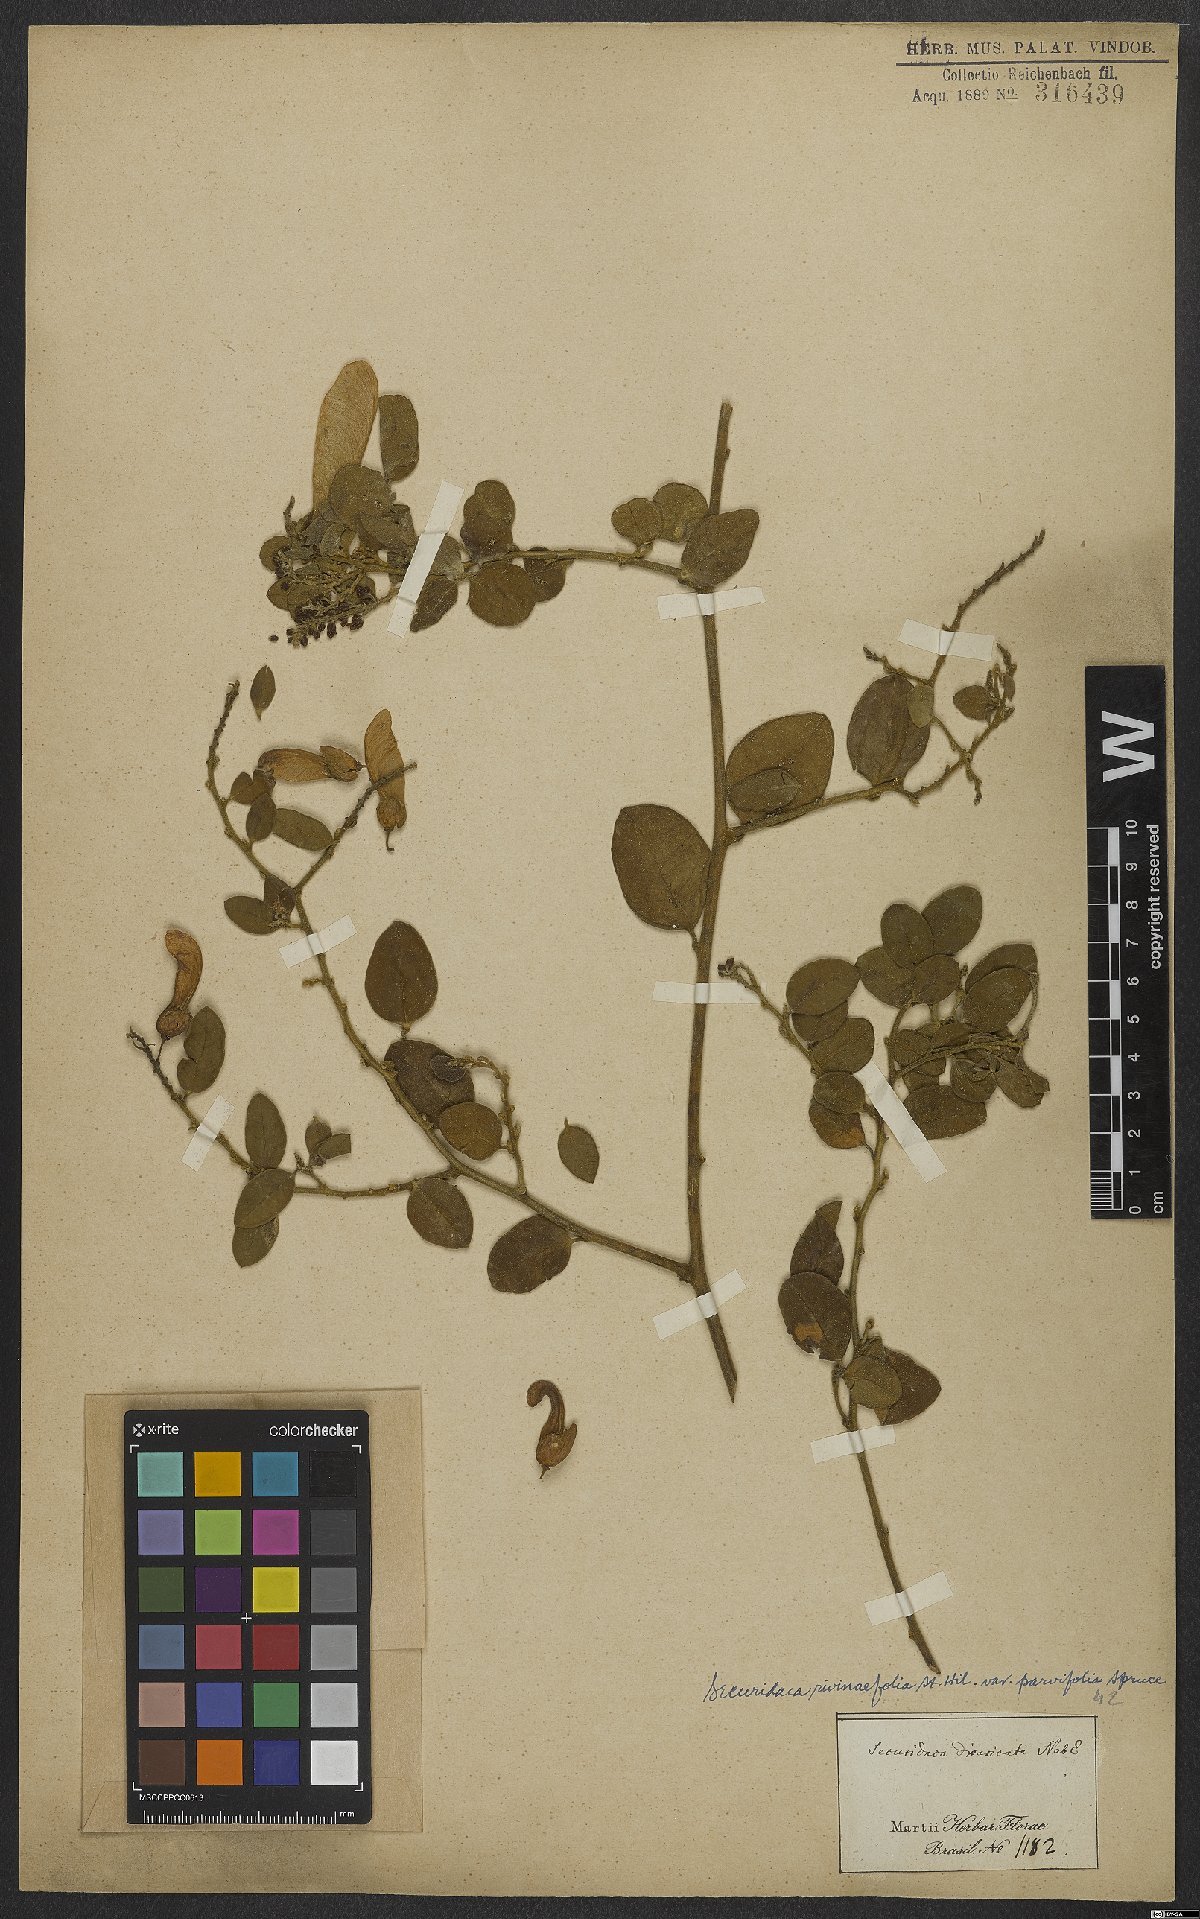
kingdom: Plantae
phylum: Tracheophyta
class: Magnoliopsida
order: Fabales
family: Polygalaceae
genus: Securidaca
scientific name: Securidaca rivinifolia
